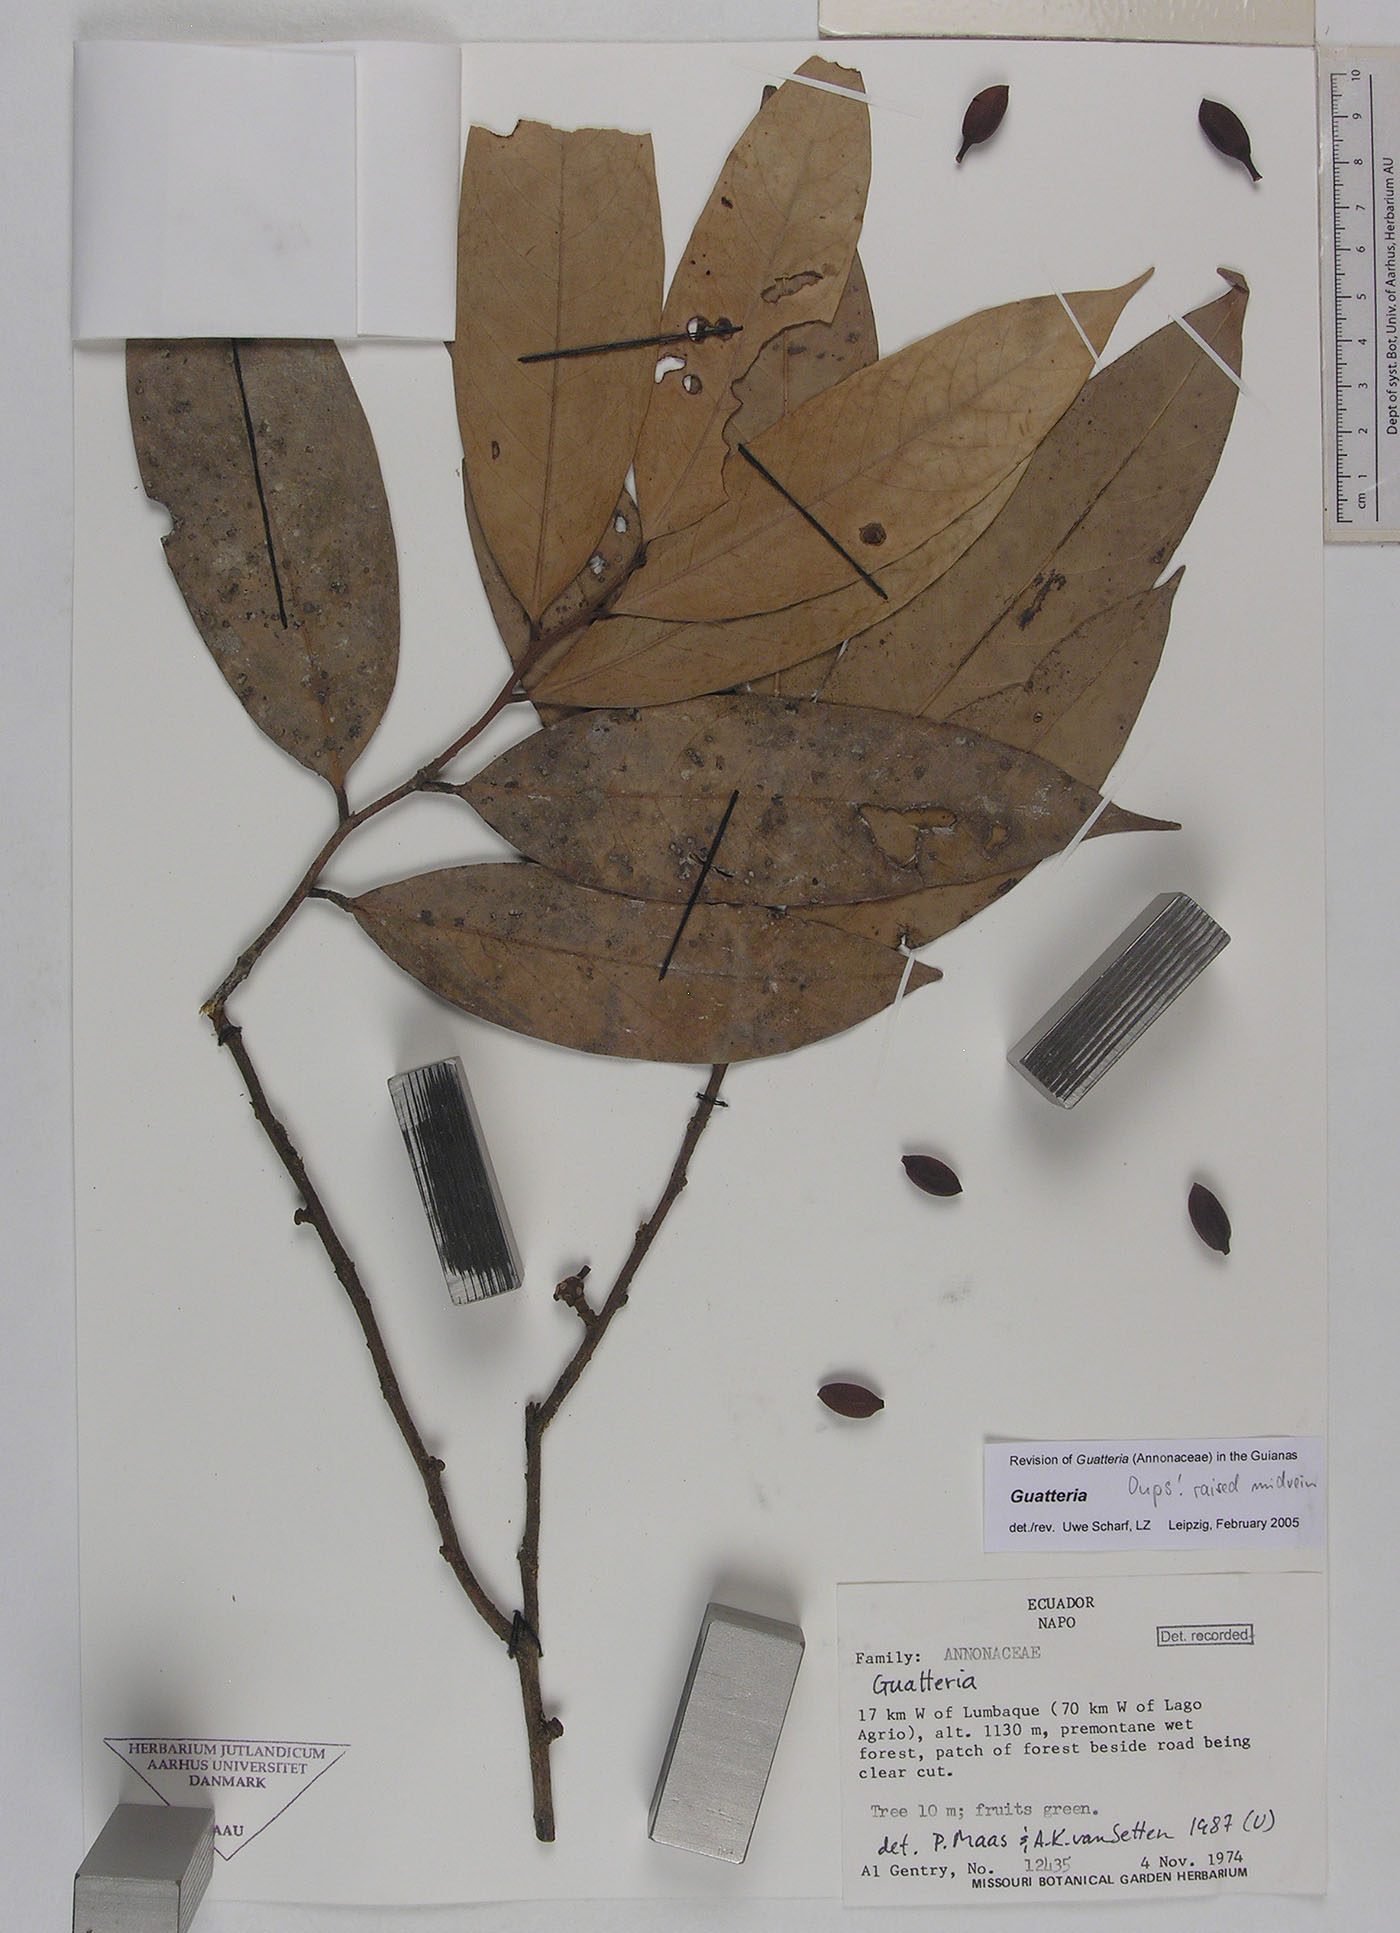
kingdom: Plantae
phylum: Tracheophyta
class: Magnoliopsida
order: Magnoliales
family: Annonaceae
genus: Guatteria
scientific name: Guatteria gentryi
